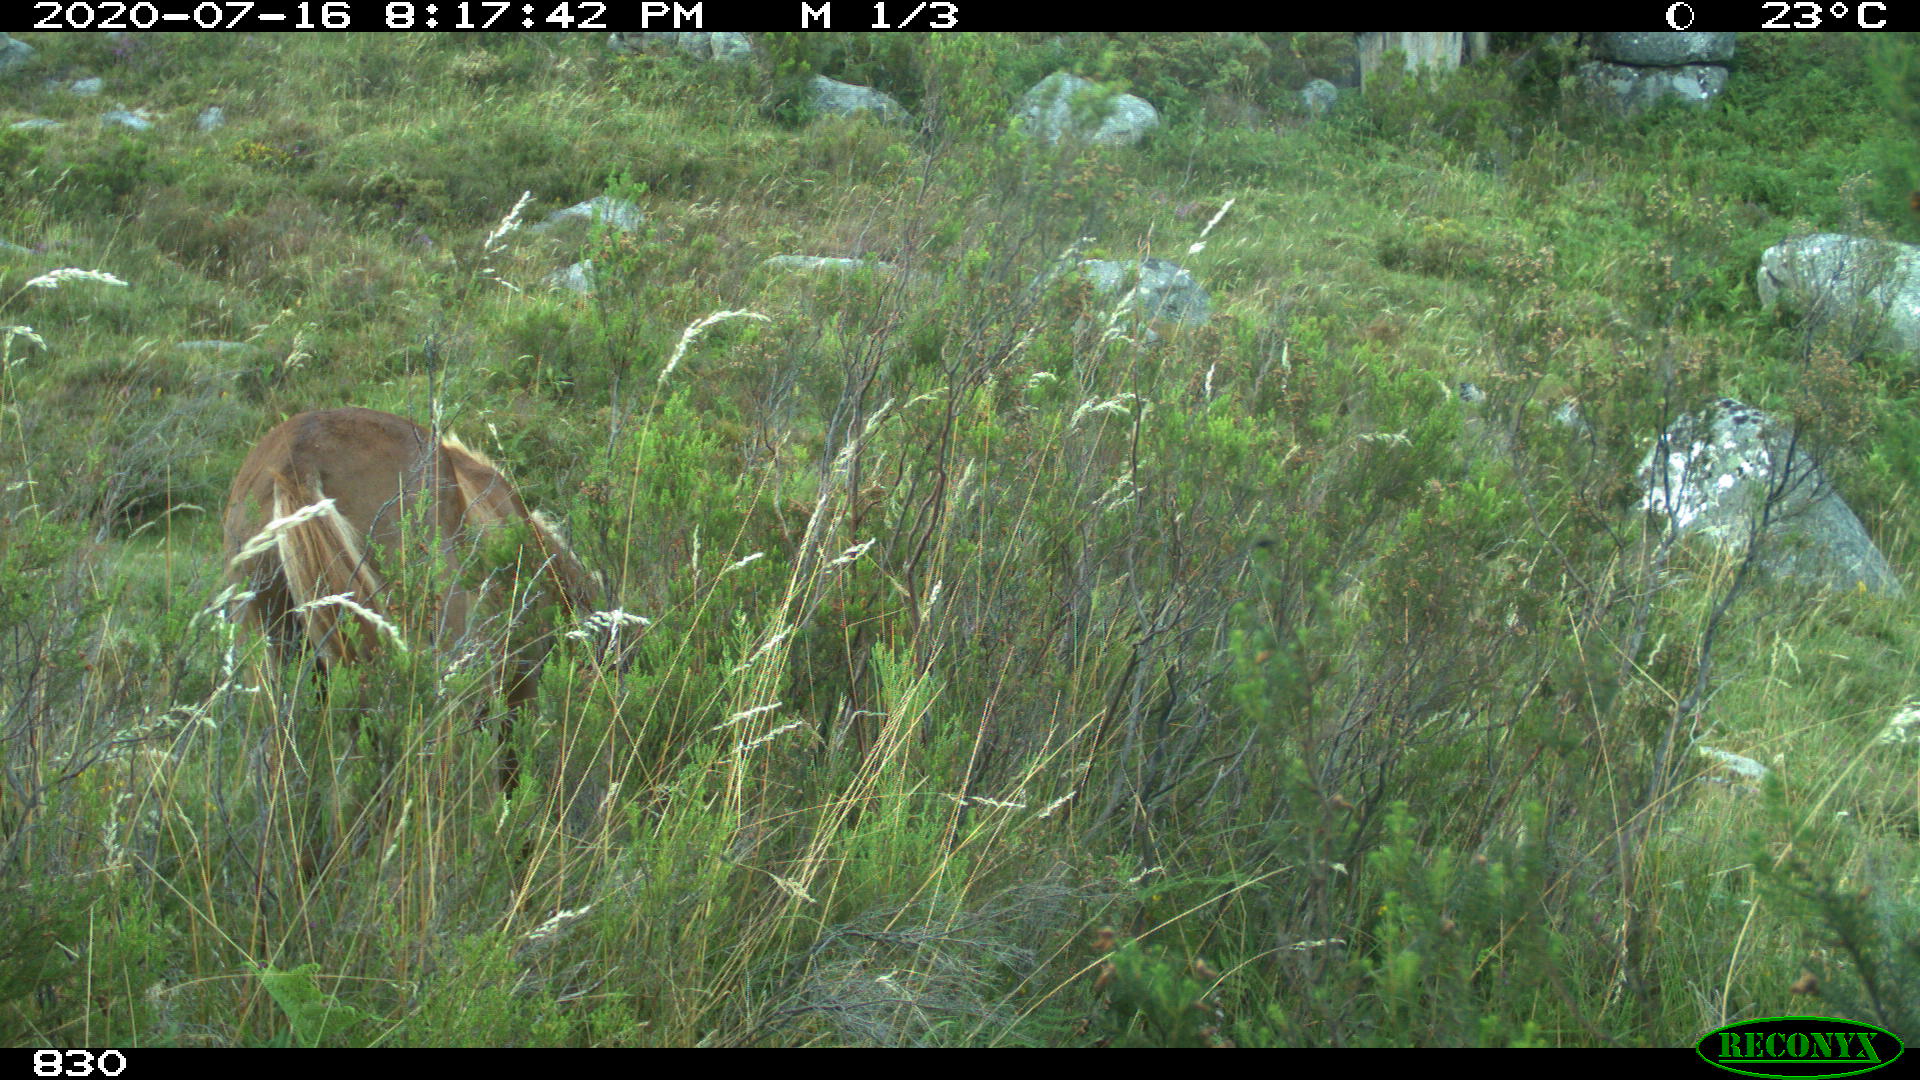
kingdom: Animalia
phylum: Chordata
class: Mammalia
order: Perissodactyla
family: Equidae
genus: Equus
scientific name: Equus caballus
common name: Horse
